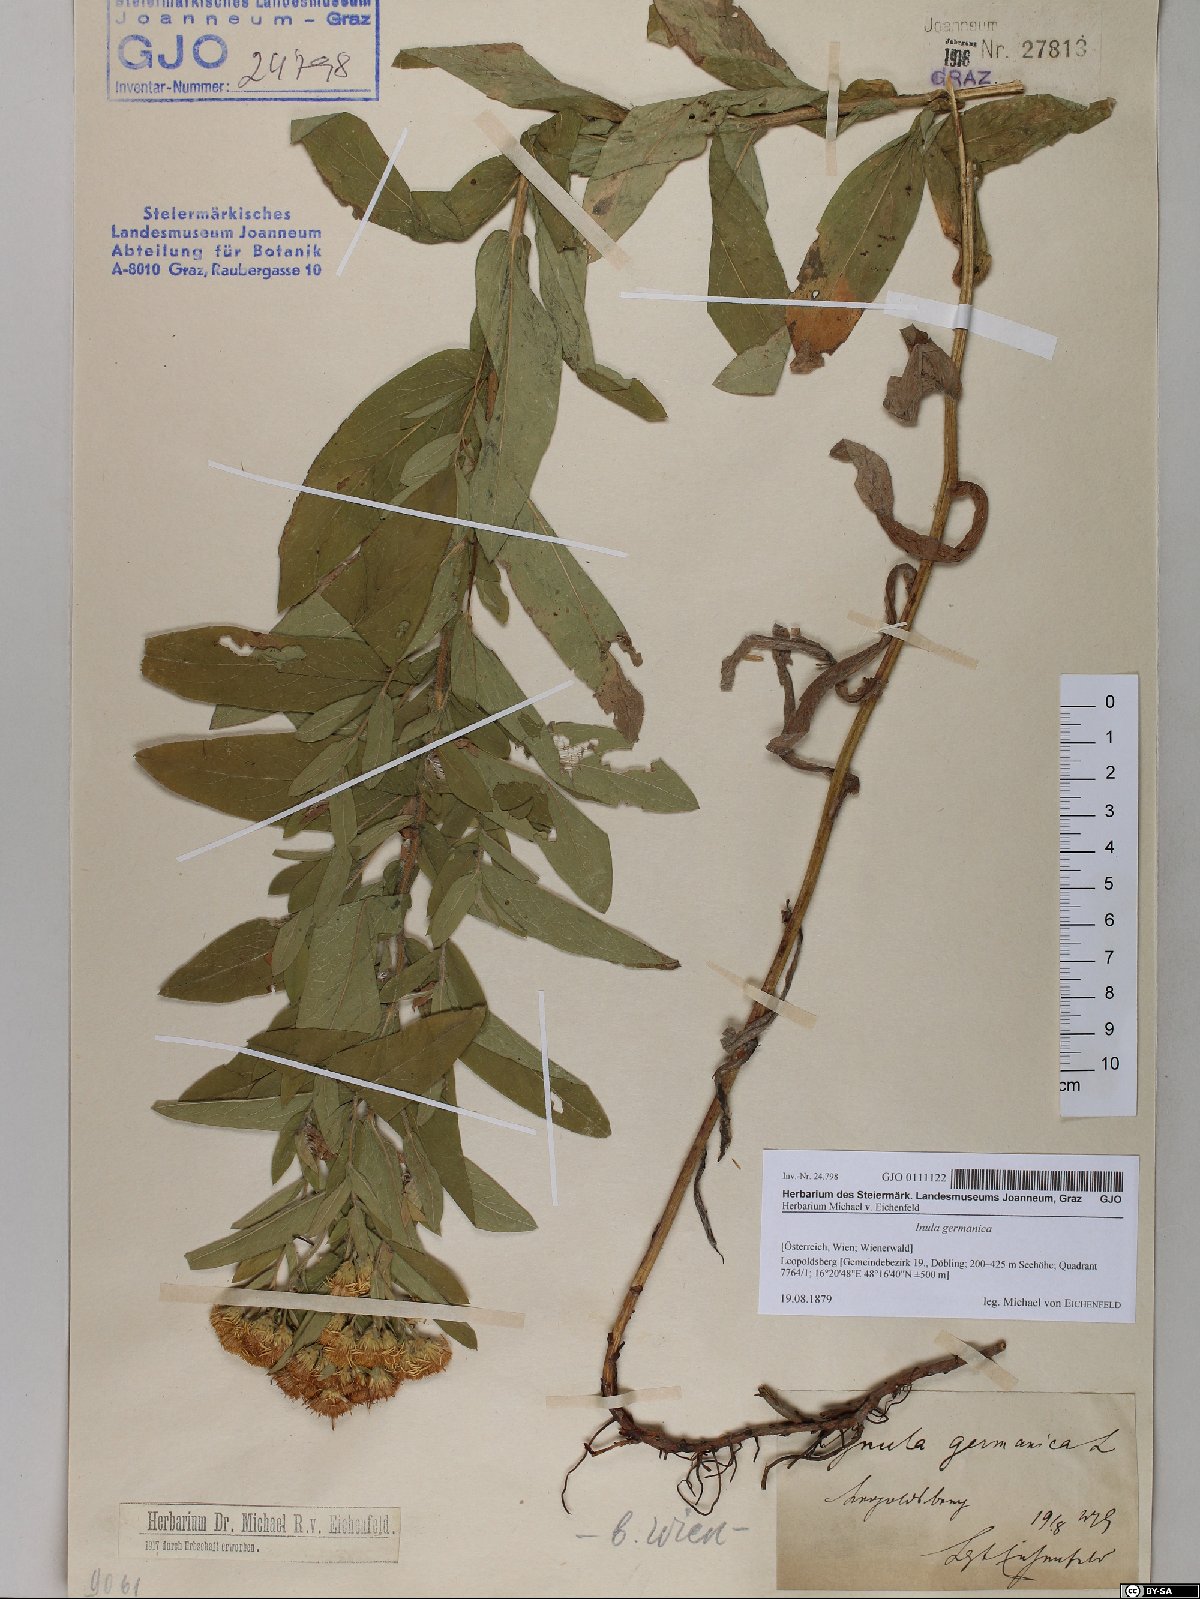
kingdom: Plantae
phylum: Tracheophyta
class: Magnoliopsida
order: Asterales
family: Asteraceae
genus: Pentanema
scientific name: Pentanema germanicum
